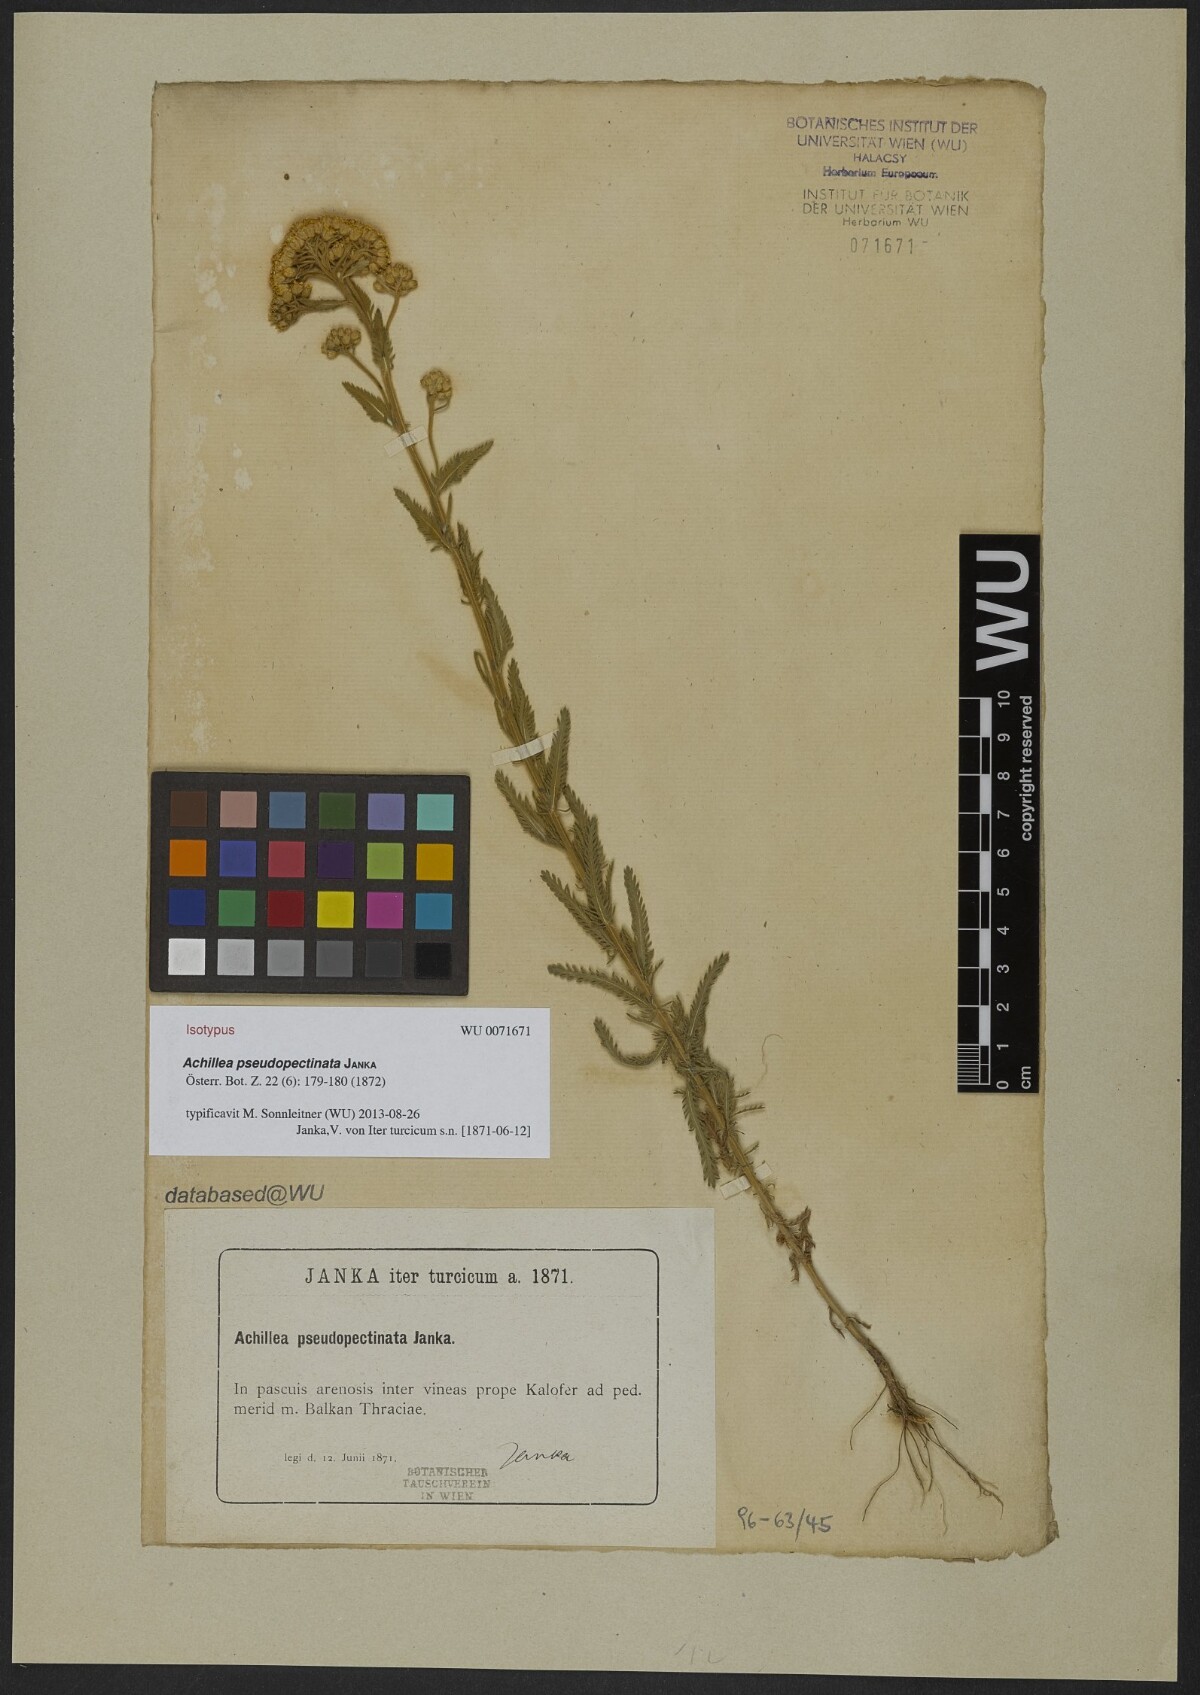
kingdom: Plantae
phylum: Tracheophyta
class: Magnoliopsida
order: Asterales
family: Asteraceae
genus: Achillea
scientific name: Achillea pseudopectinata
